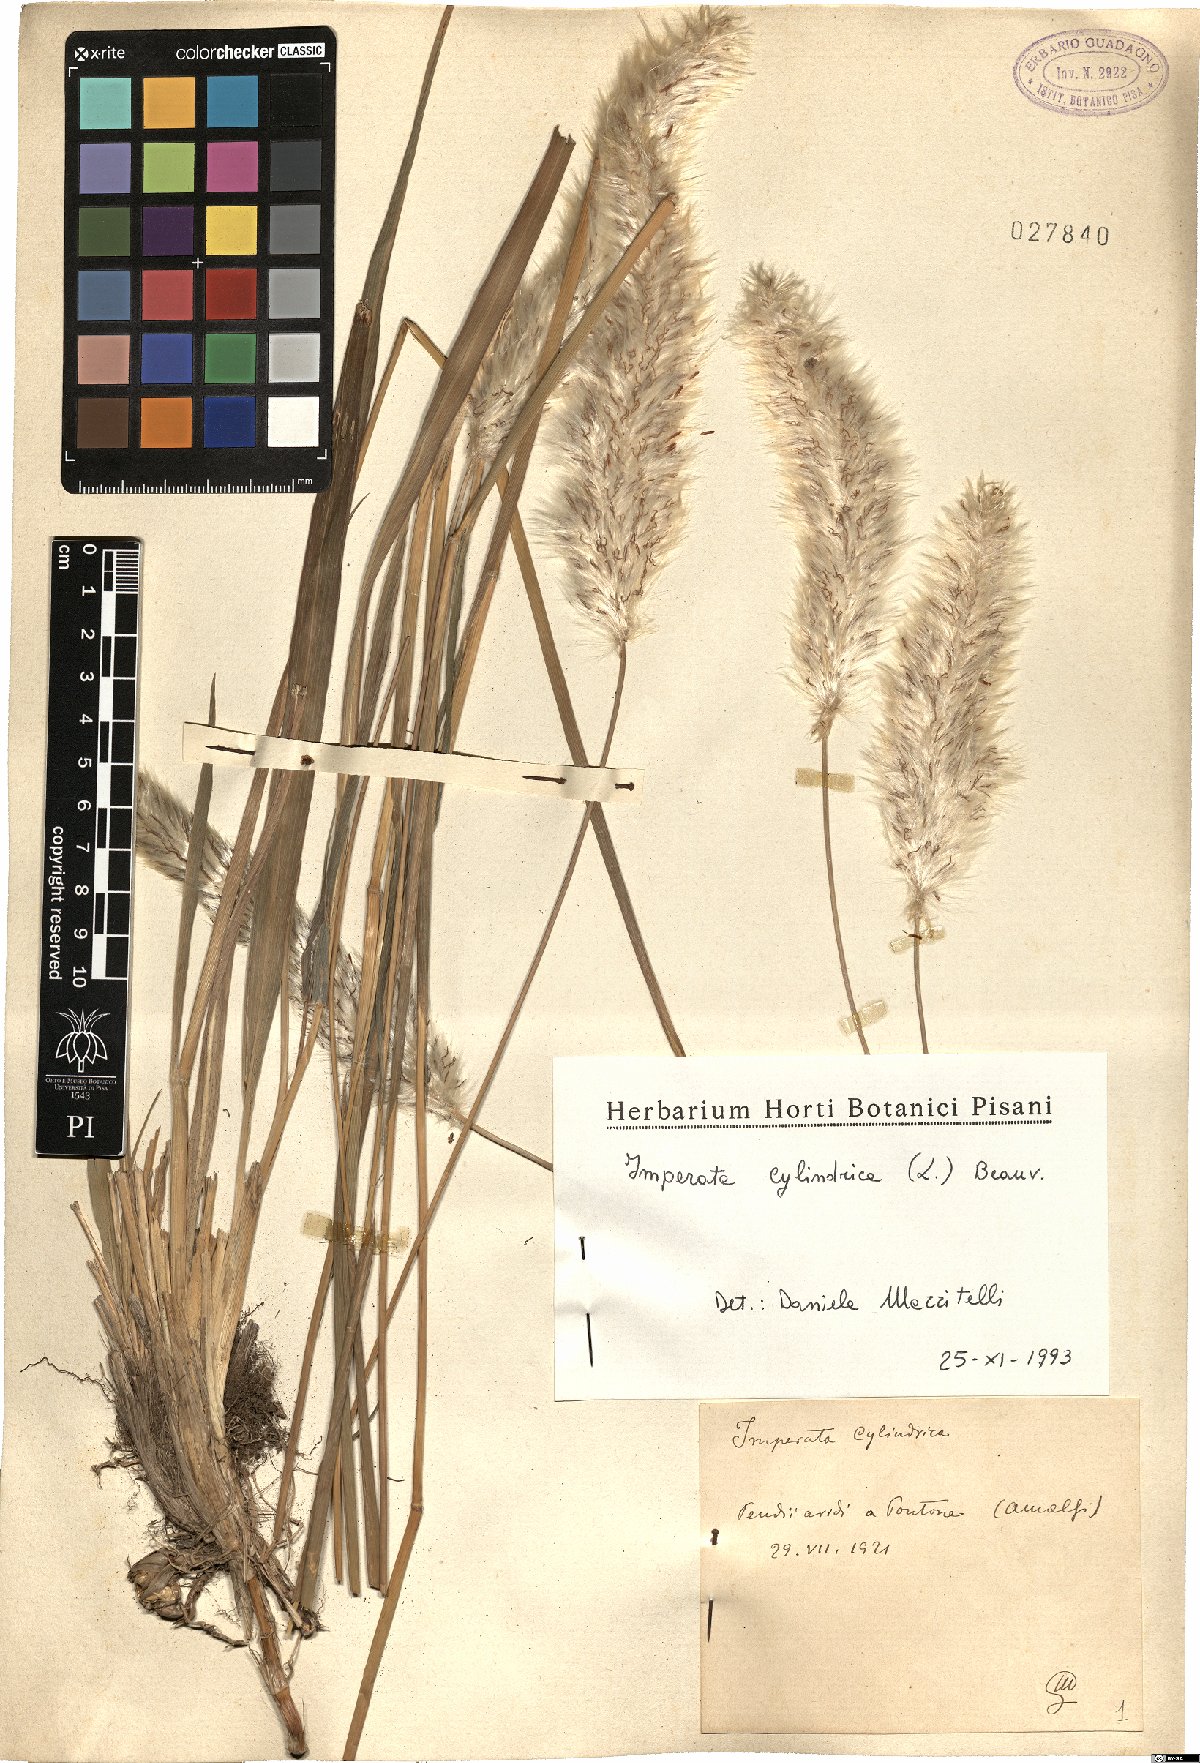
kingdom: Plantae
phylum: Tracheophyta
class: Liliopsida
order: Poales
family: Poaceae
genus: Imperata
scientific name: Imperata cylindrica
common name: Cogongrass
